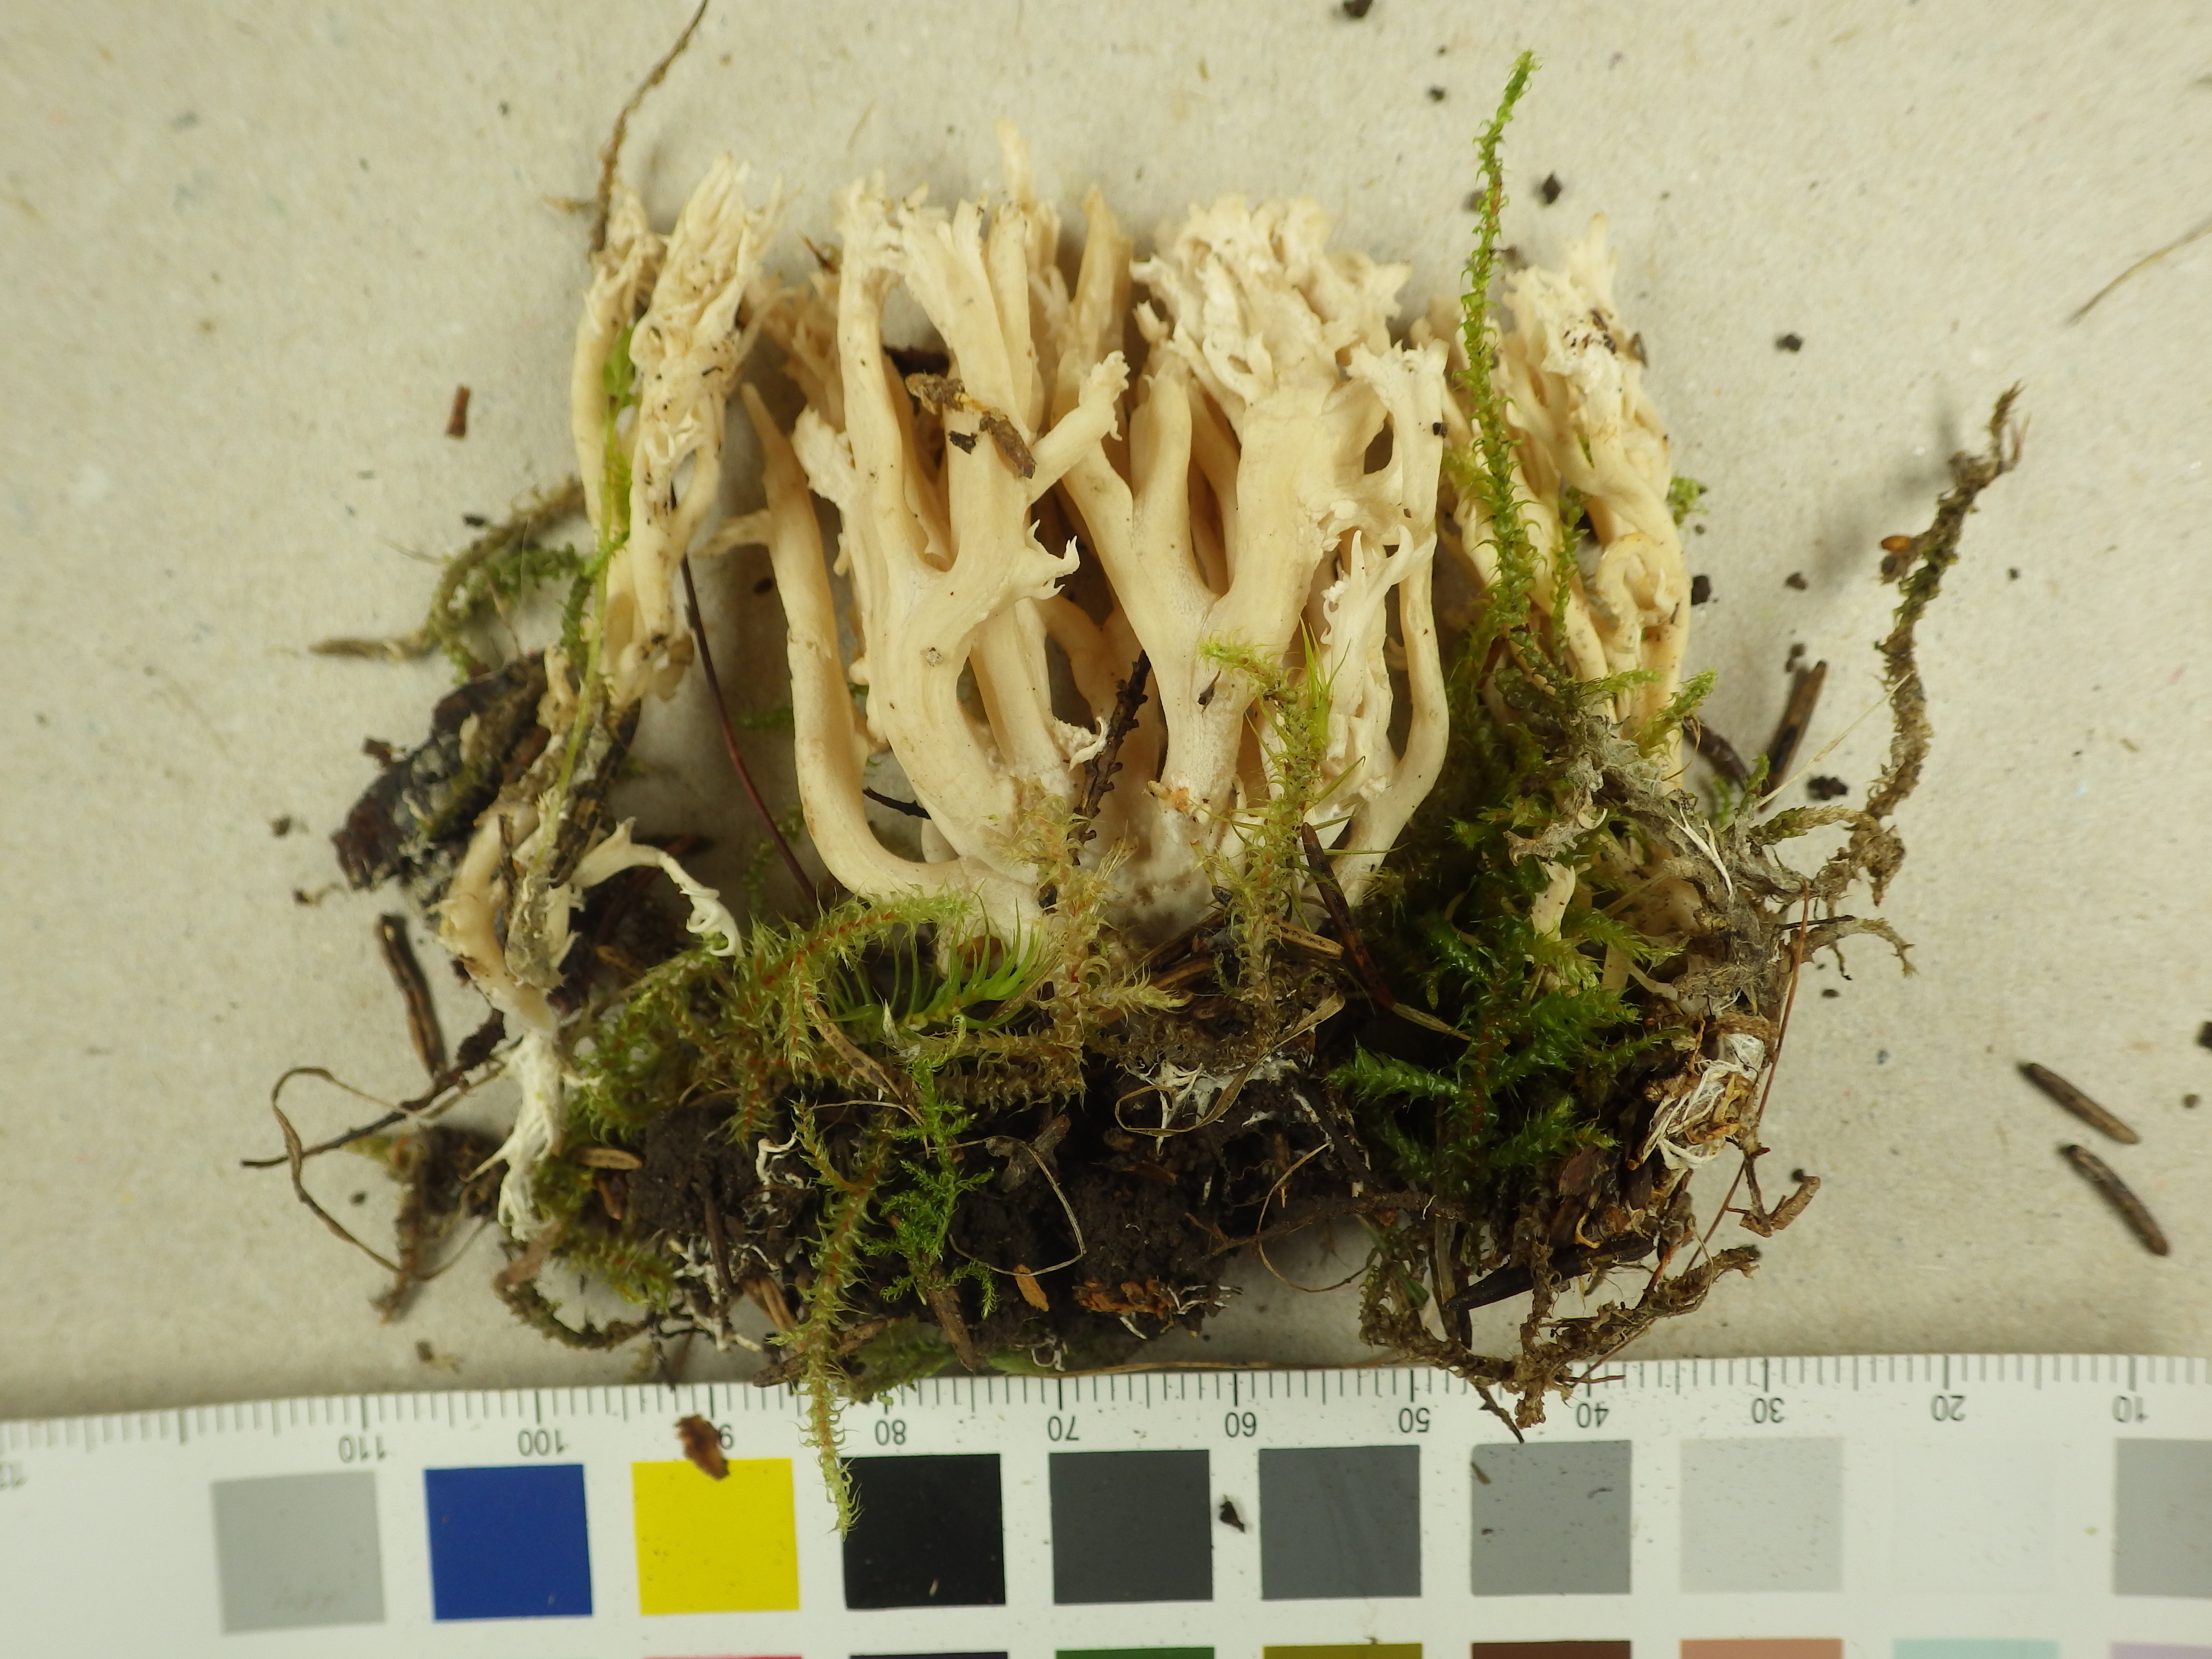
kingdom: Fungi
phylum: Basidiomycota
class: Agaricomycetes
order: Cantharellales
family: Hydnaceae
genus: Clavulina
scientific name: Clavulina coralloides
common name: Crested coral
